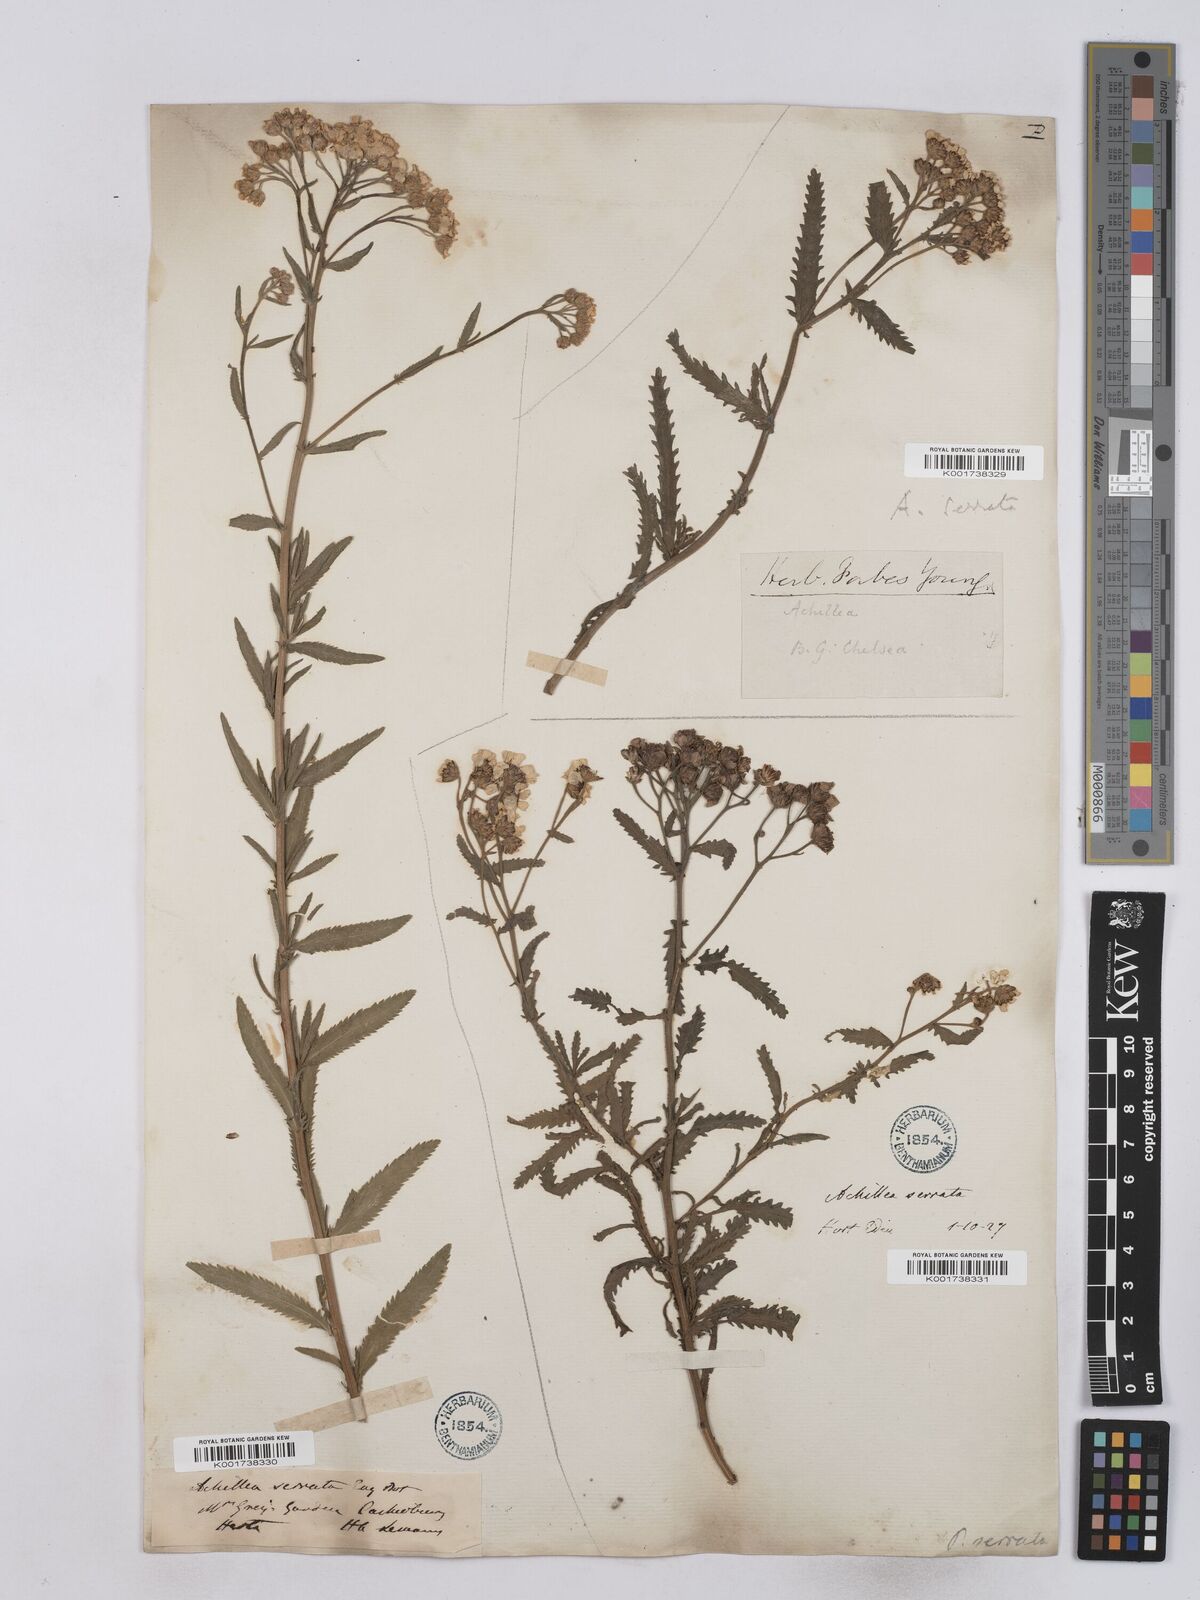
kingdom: Plantae
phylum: Tracheophyta
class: Magnoliopsida
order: Asterales
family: Asteraceae
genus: Achillea
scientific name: Achillea serrata
